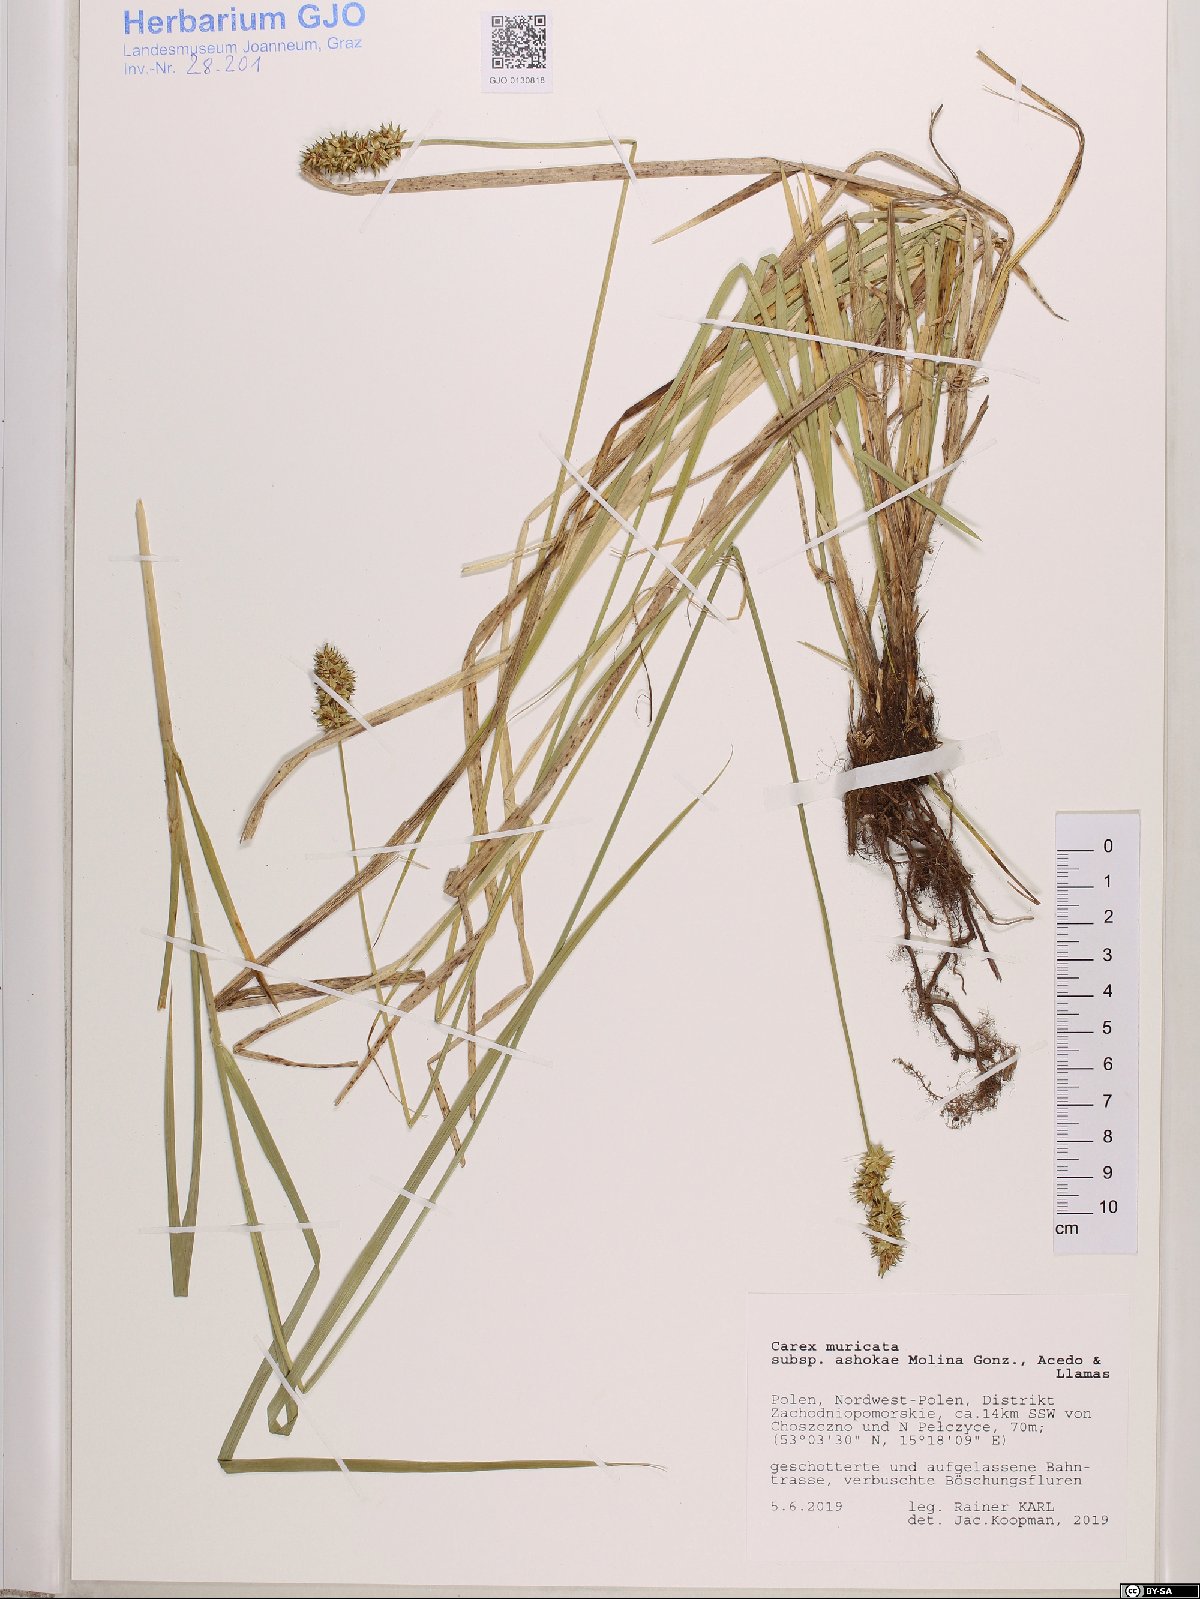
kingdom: Plantae
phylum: Tracheophyta
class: Liliopsida
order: Poales
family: Cyperaceae
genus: Carex
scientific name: Carex muricata
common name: Rough sedge
